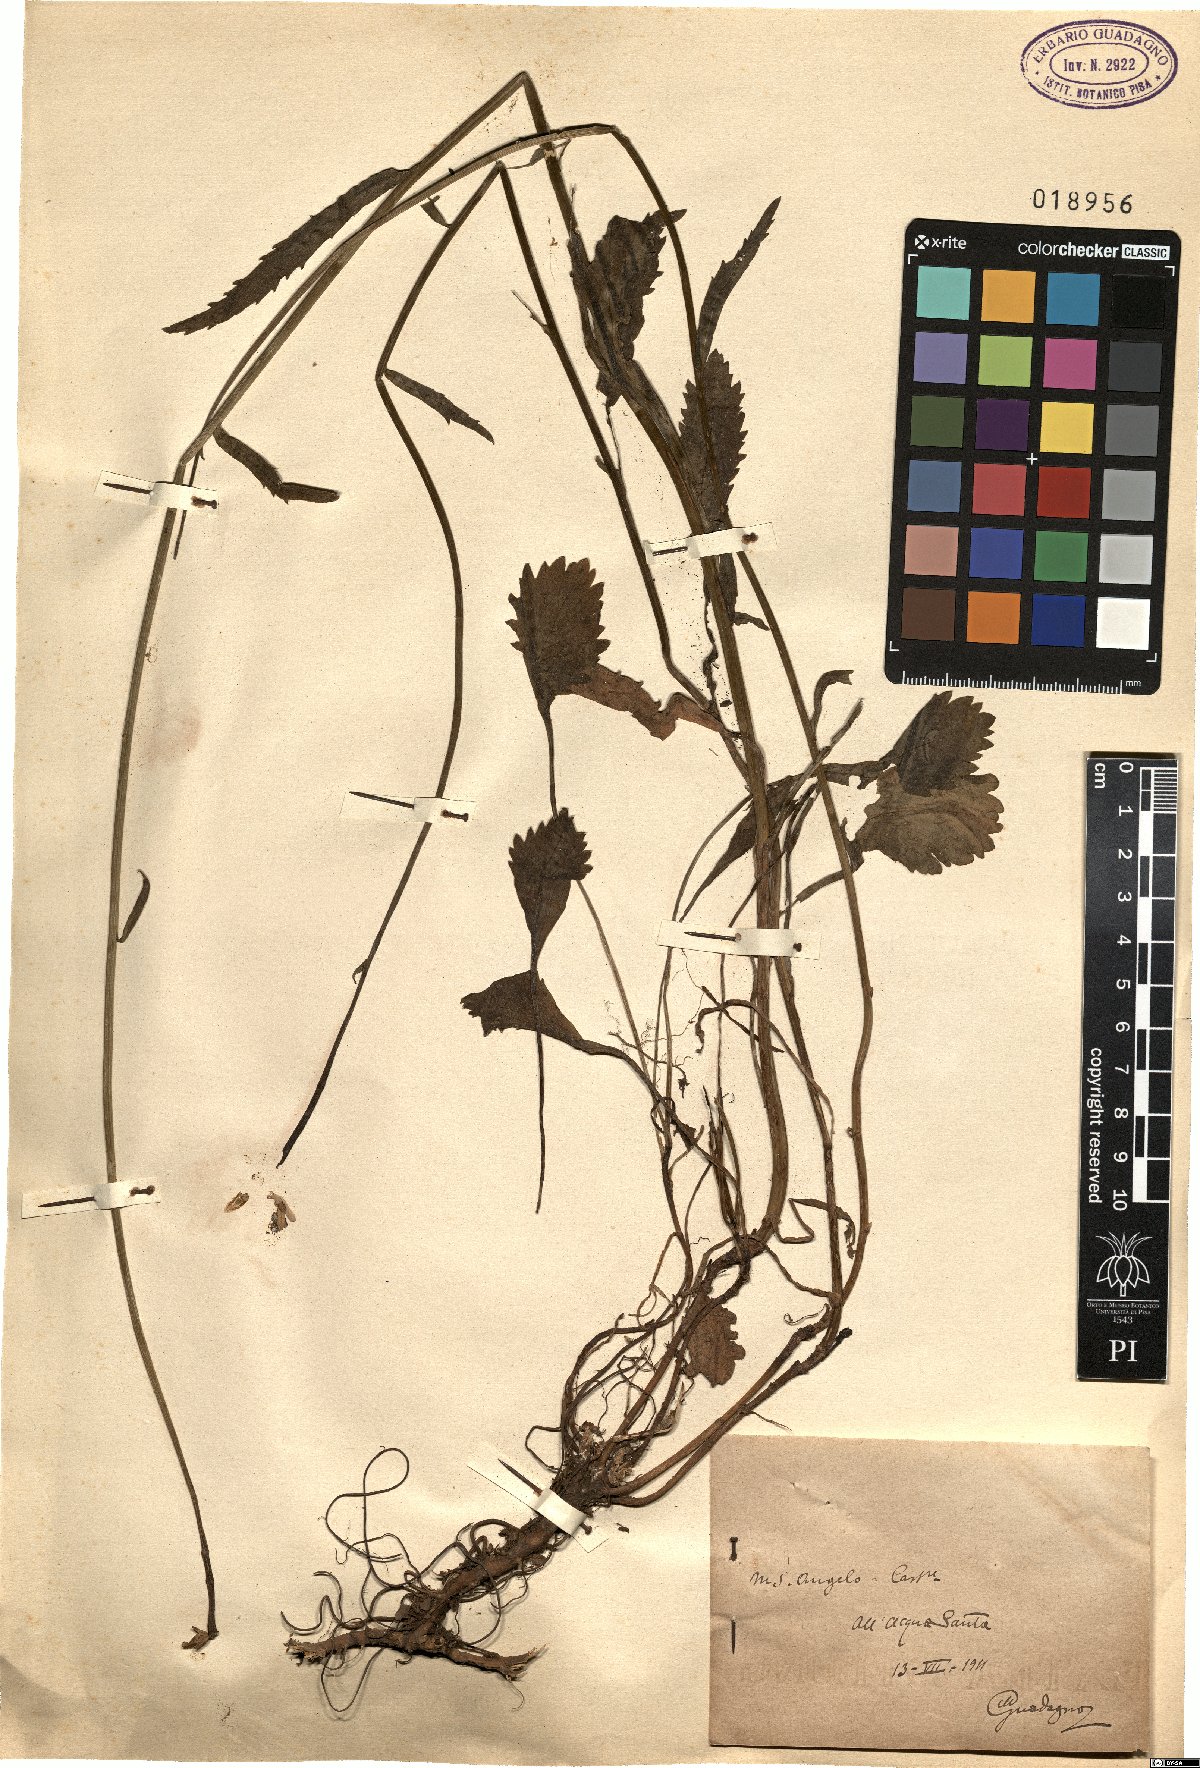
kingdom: Plantae
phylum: Tracheophyta
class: Magnoliopsida
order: Asterales
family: Asteraceae
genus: Leucanthemum
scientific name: Leucanthemum
